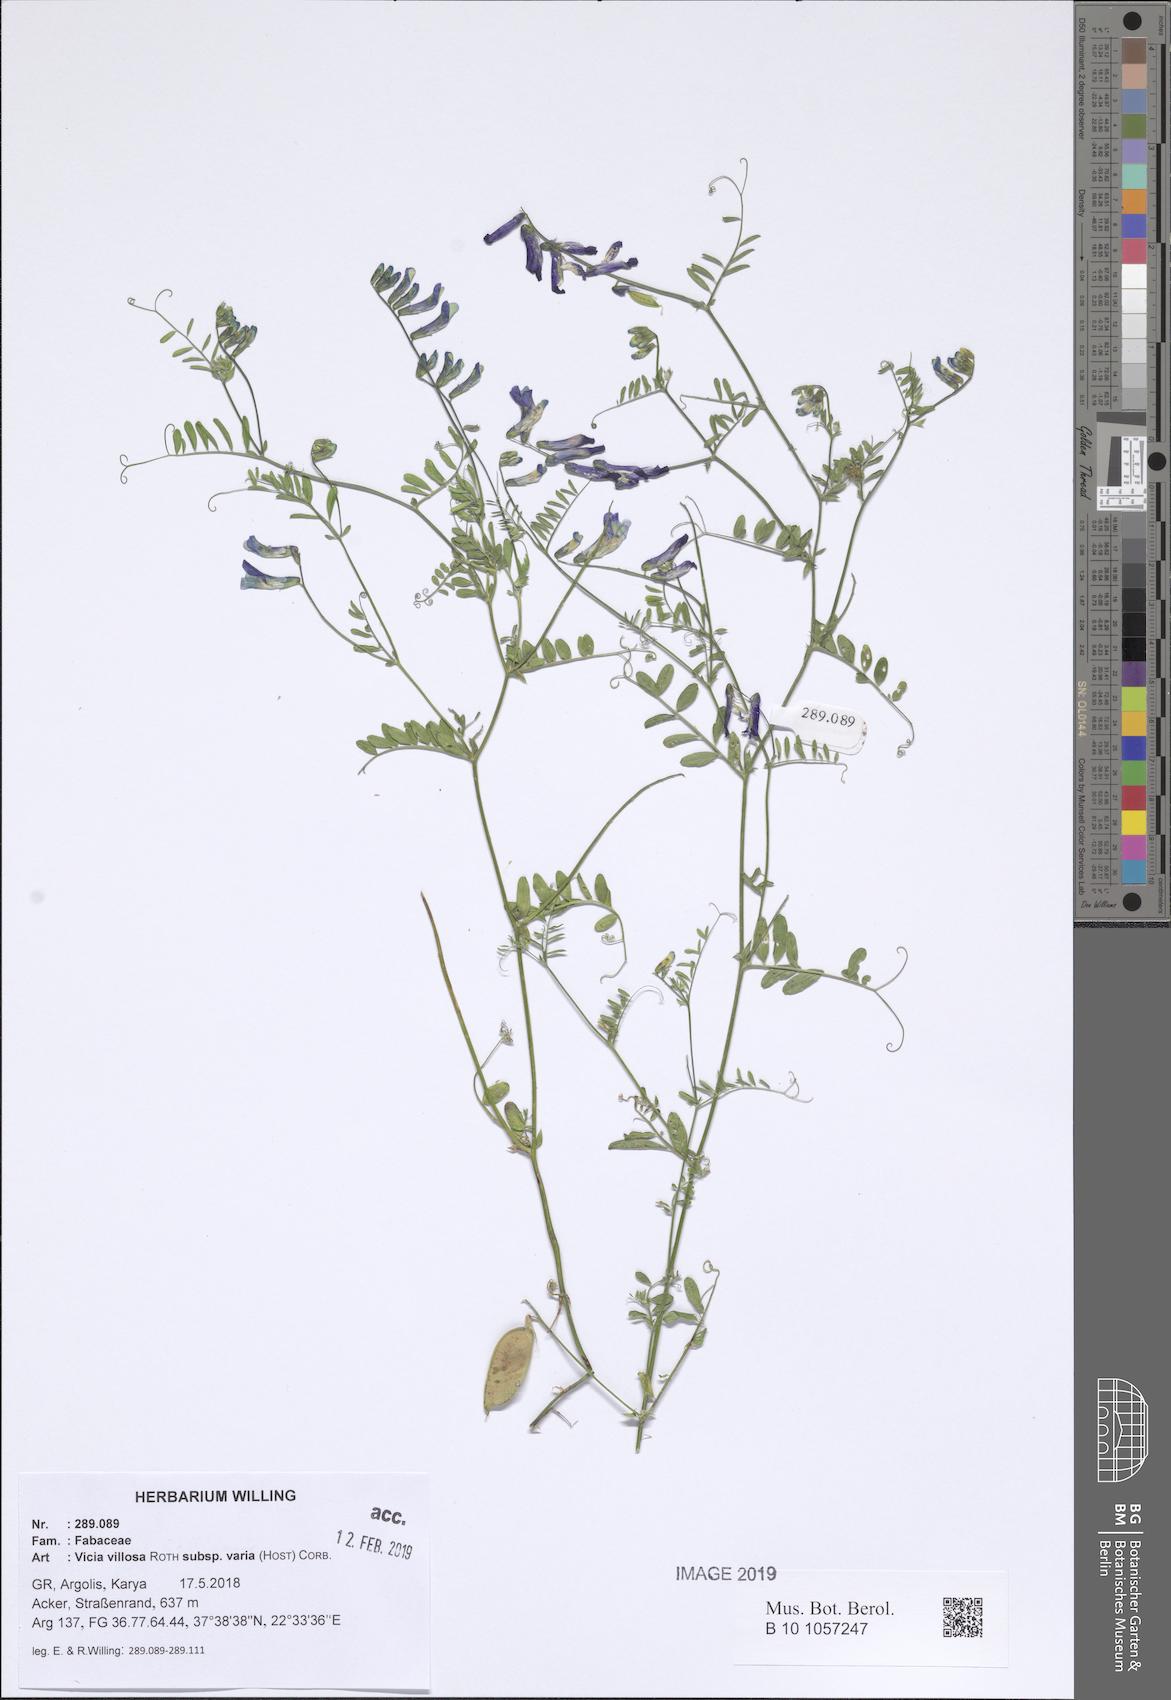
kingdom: Plantae
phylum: Tracheophyta
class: Magnoliopsida
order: Fabales
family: Fabaceae
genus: Vicia
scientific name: Vicia villosa
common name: Fodder vetch
